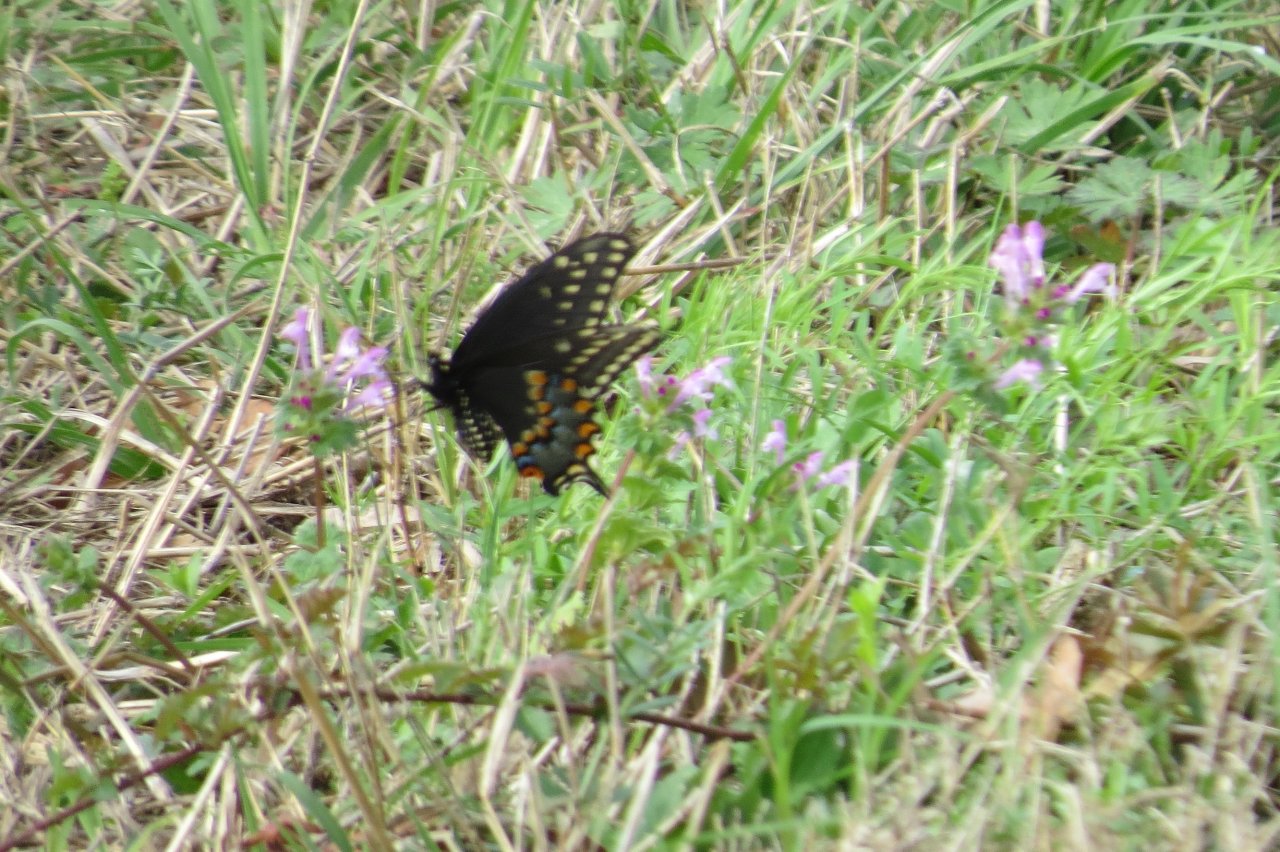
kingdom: Animalia
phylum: Arthropoda
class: Insecta
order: Lepidoptera
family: Papilionidae
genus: Papilio
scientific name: Papilio polyxenes
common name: Black Swallowtail
